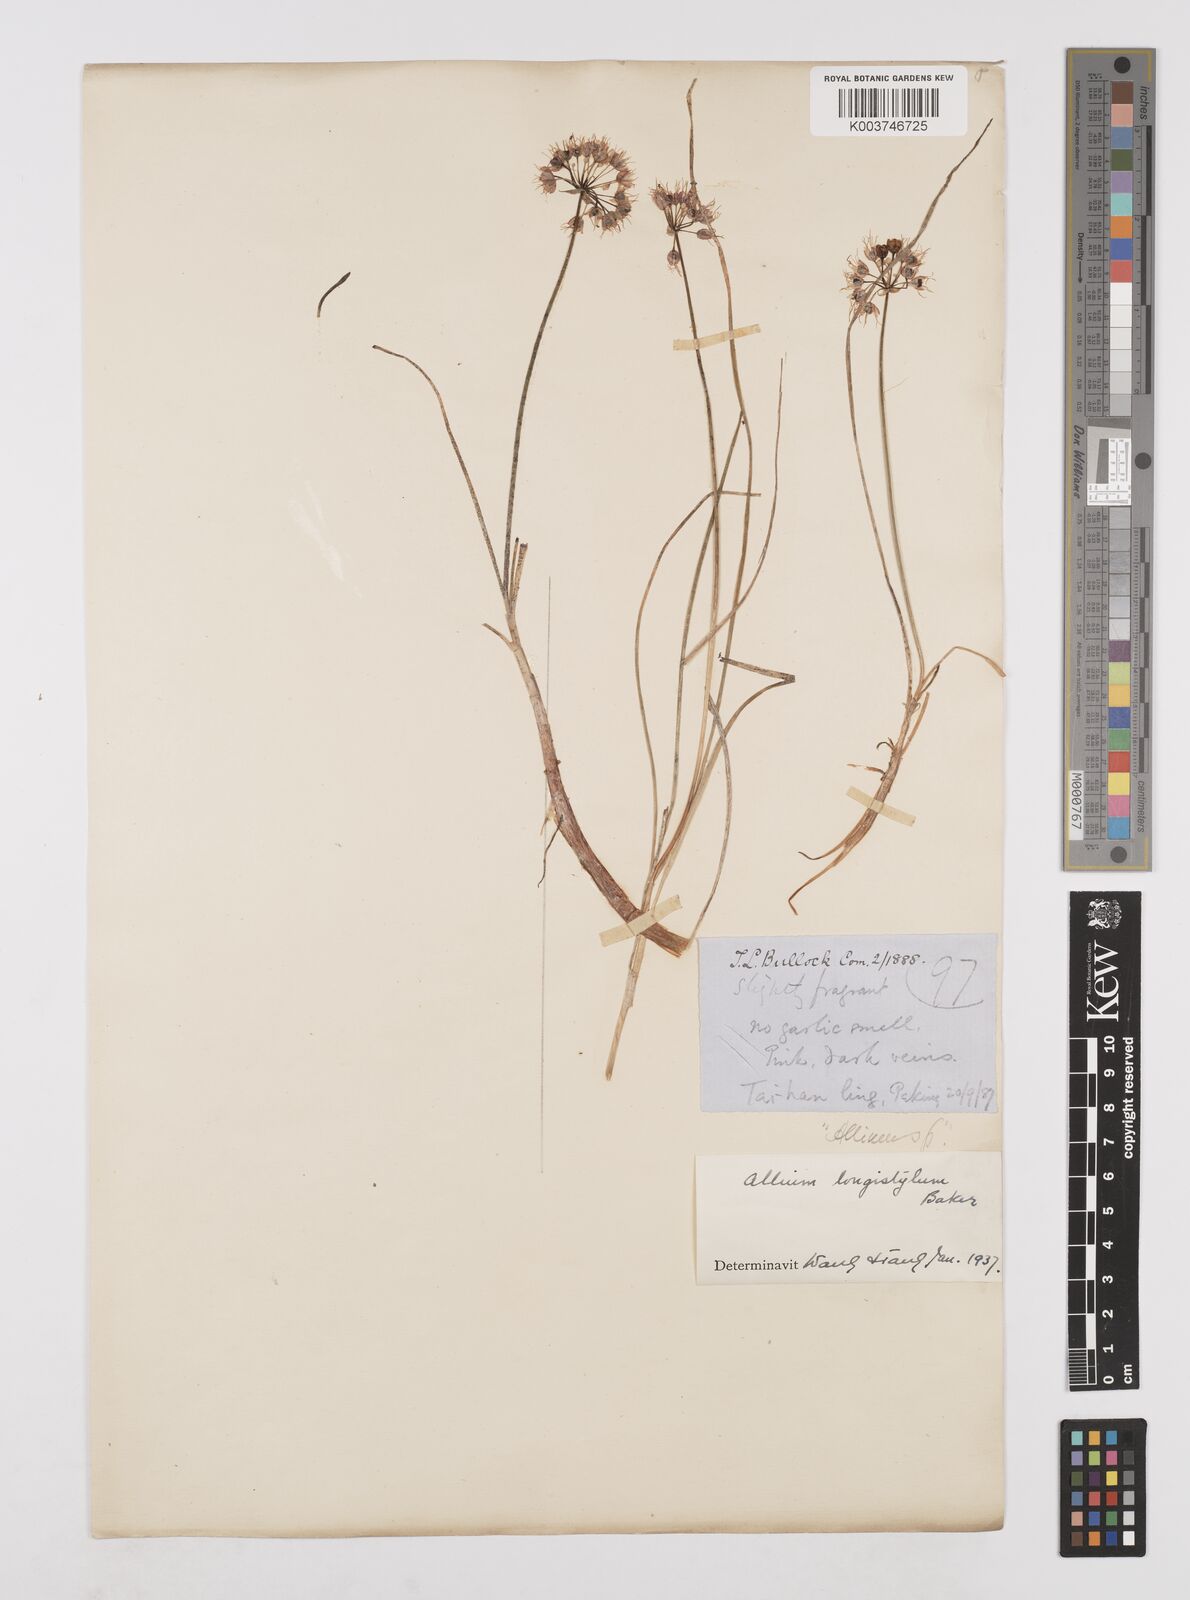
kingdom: Plantae
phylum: Tracheophyta
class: Liliopsida
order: Asparagales
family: Amaryllidaceae
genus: Allium
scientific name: Allium longistylum
